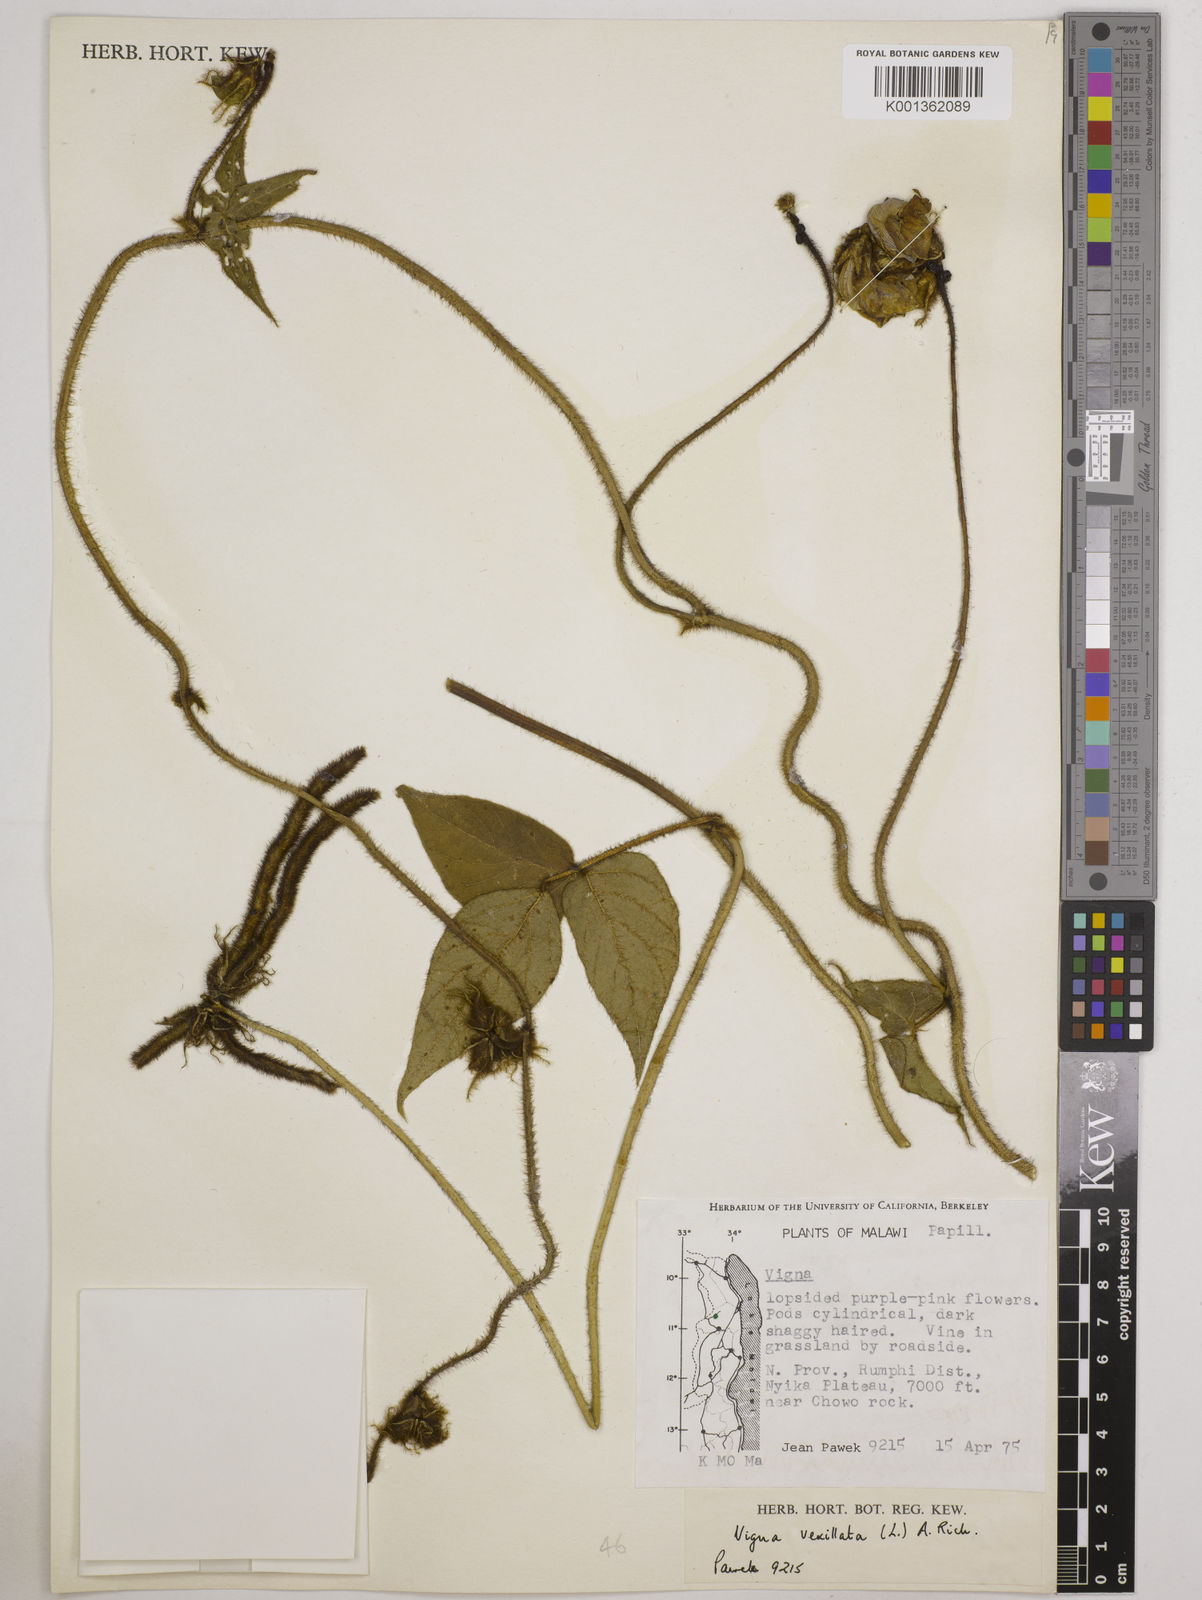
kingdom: Plantae
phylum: Tracheophyta
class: Magnoliopsida
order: Fabales
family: Fabaceae
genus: Vigna
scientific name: Vigna vexillata
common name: Zombi pea
